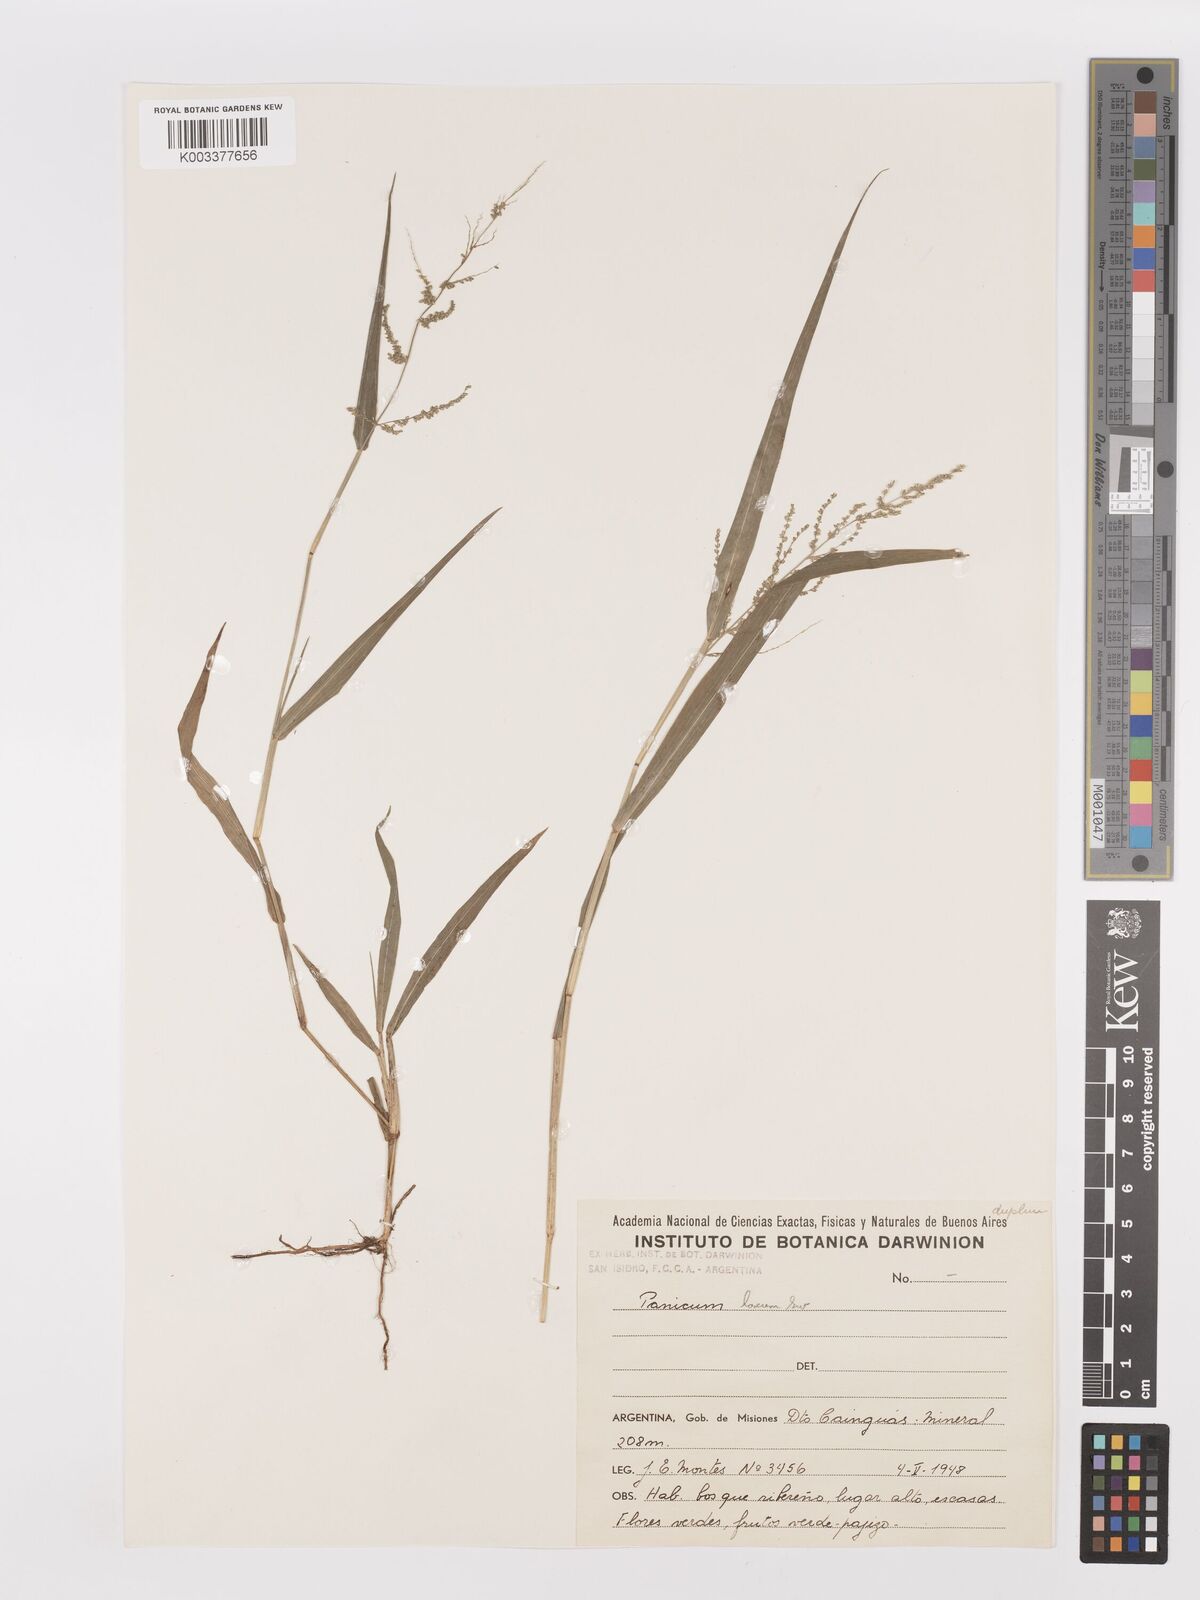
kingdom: Plantae
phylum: Tracheophyta
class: Liliopsida
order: Poales
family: Poaceae
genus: Steinchisma
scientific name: Steinchisma laxum
